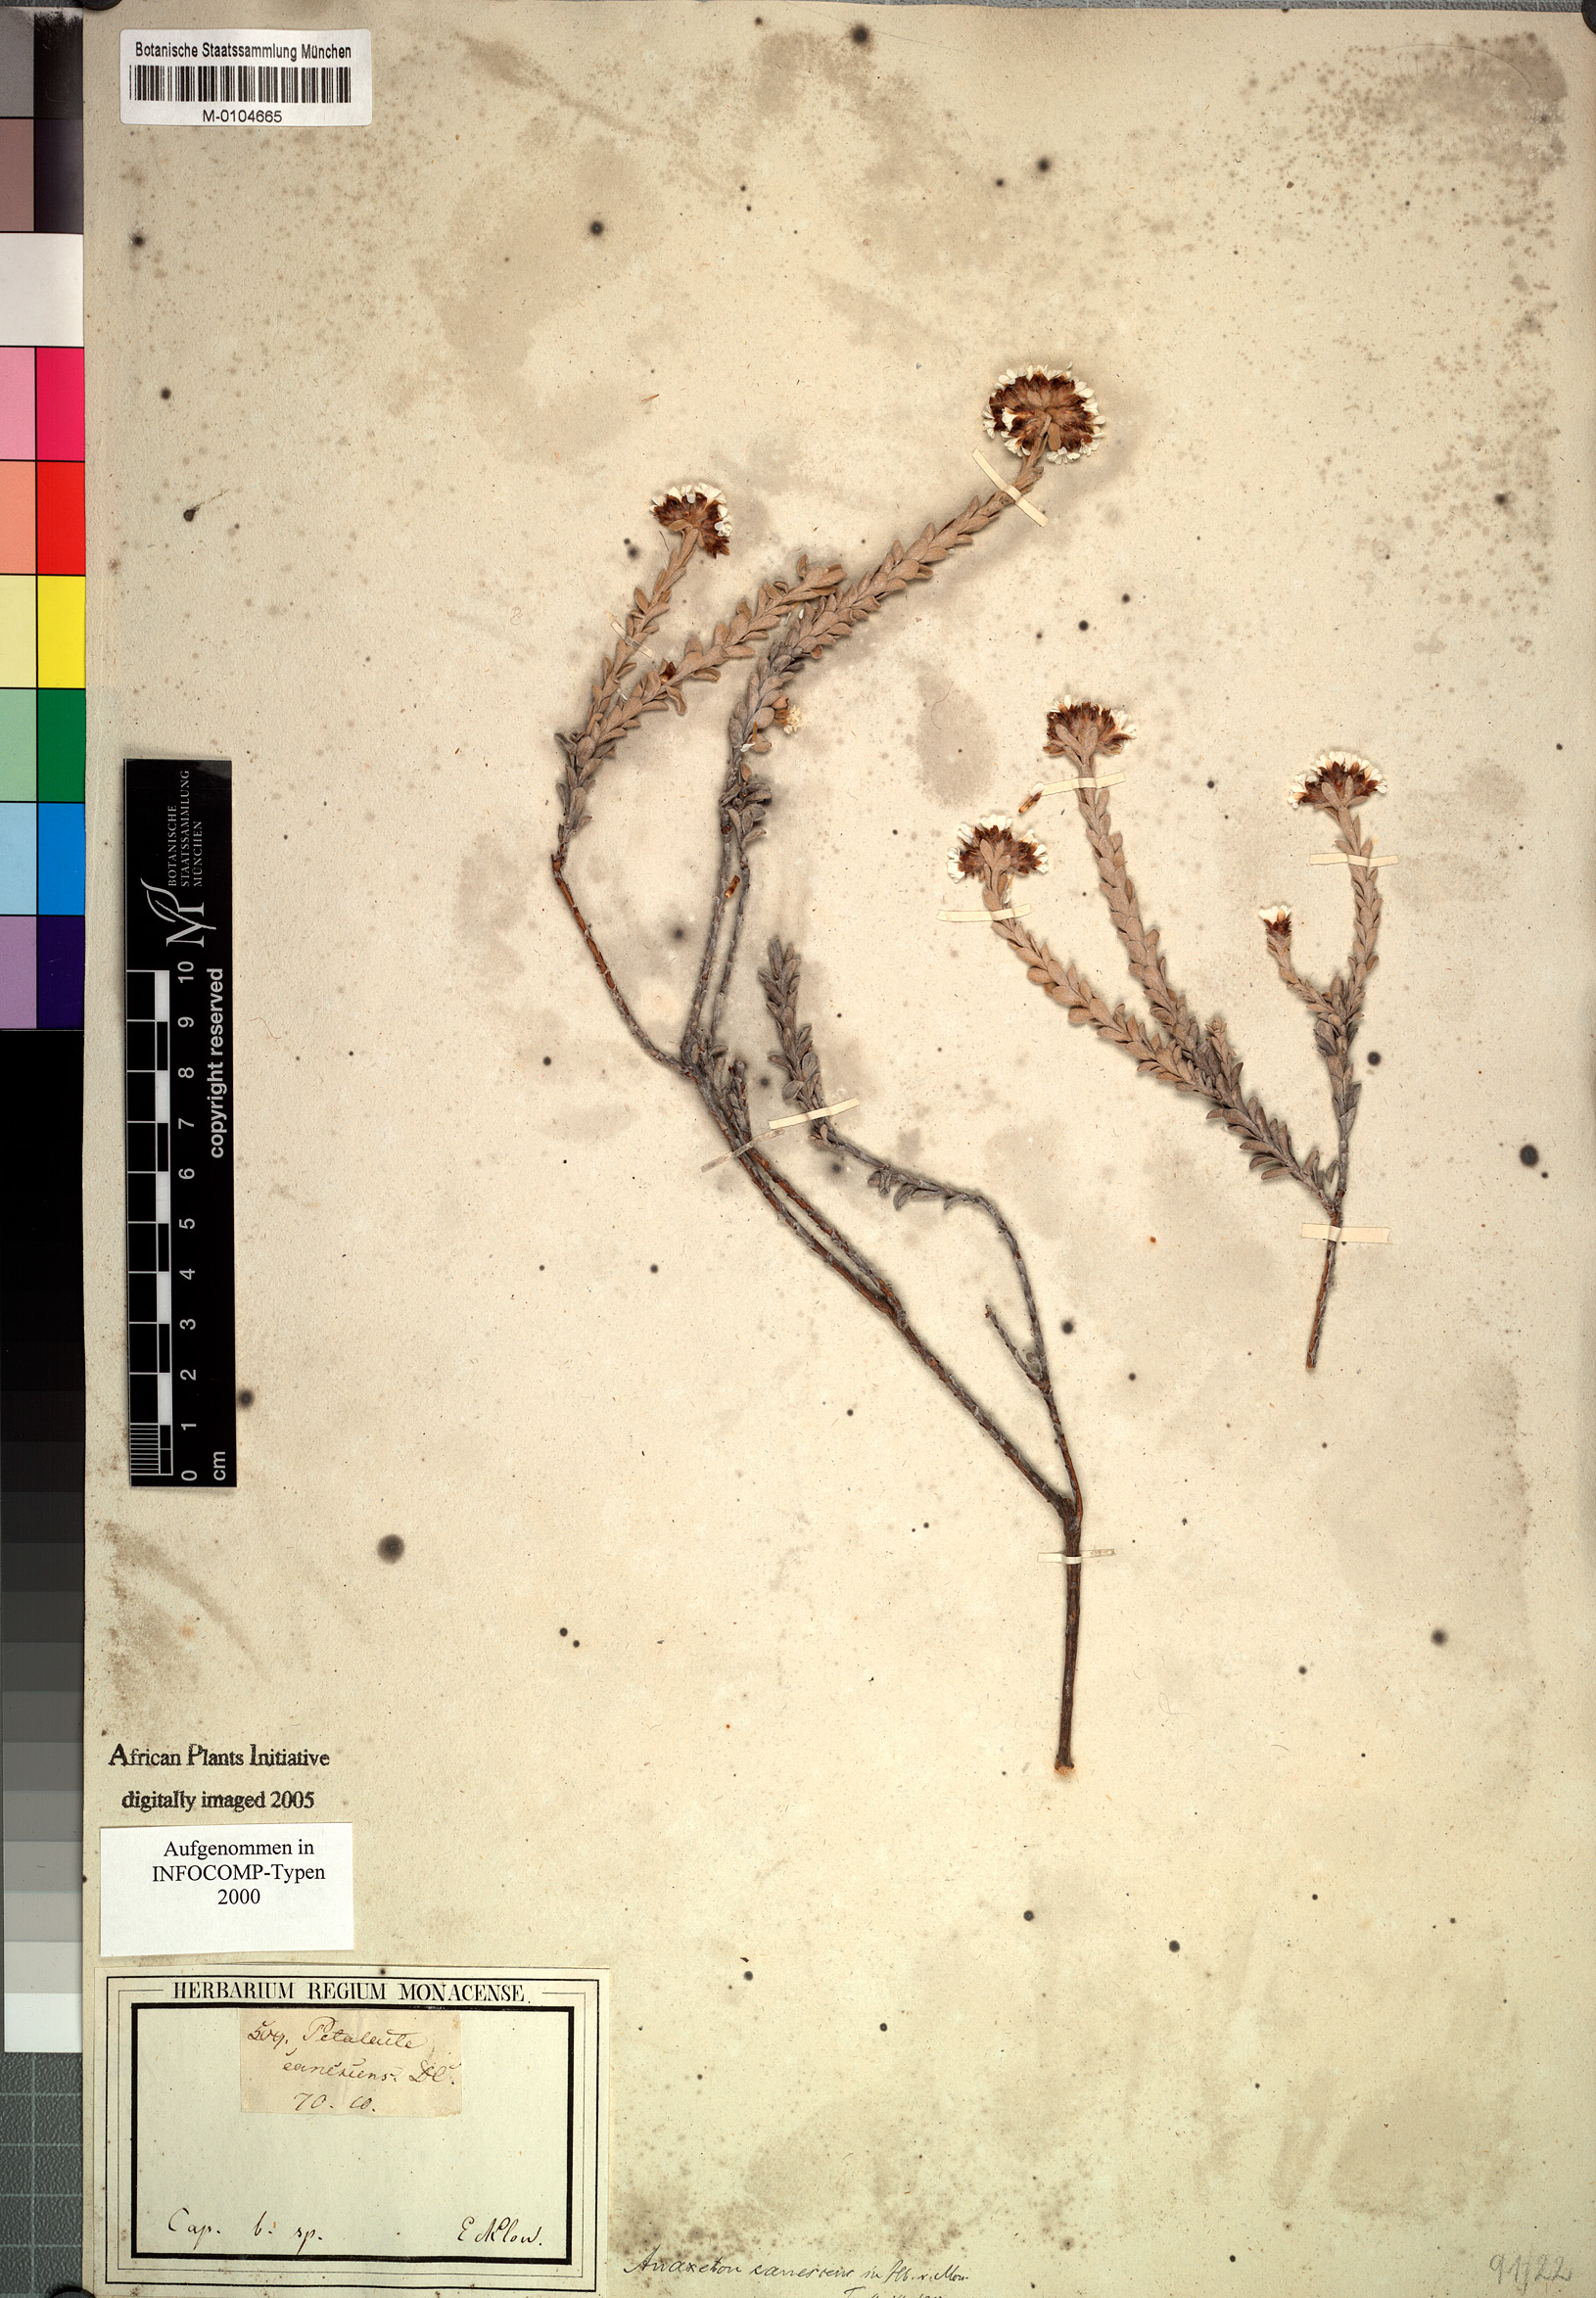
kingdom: Plantae
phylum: Tracheophyta
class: Magnoliopsida
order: Asterales
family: Asteraceae
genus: Langebergia
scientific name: Langebergia canescens
